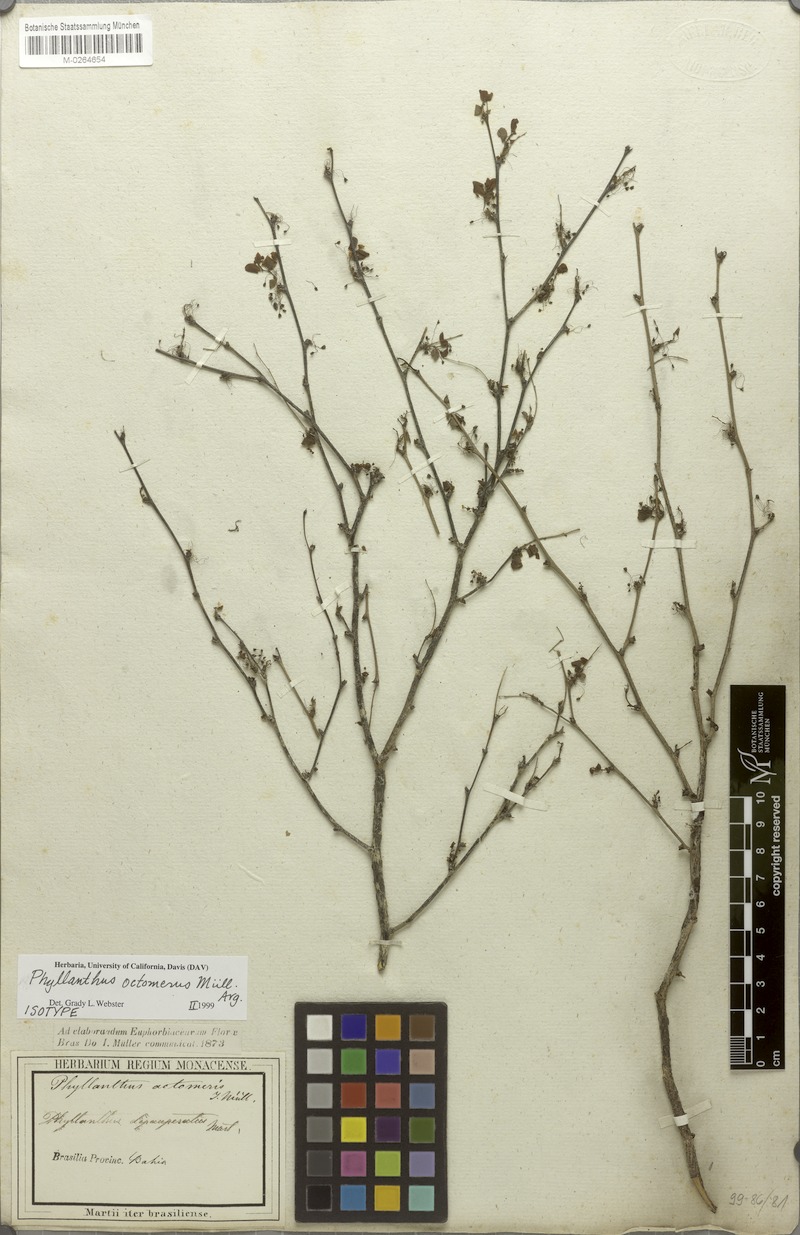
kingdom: Plantae
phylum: Tracheophyta
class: Magnoliopsida
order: Malpighiales
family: Phyllanthaceae
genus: Phyllanthus
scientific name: Phyllanthus octomerus
